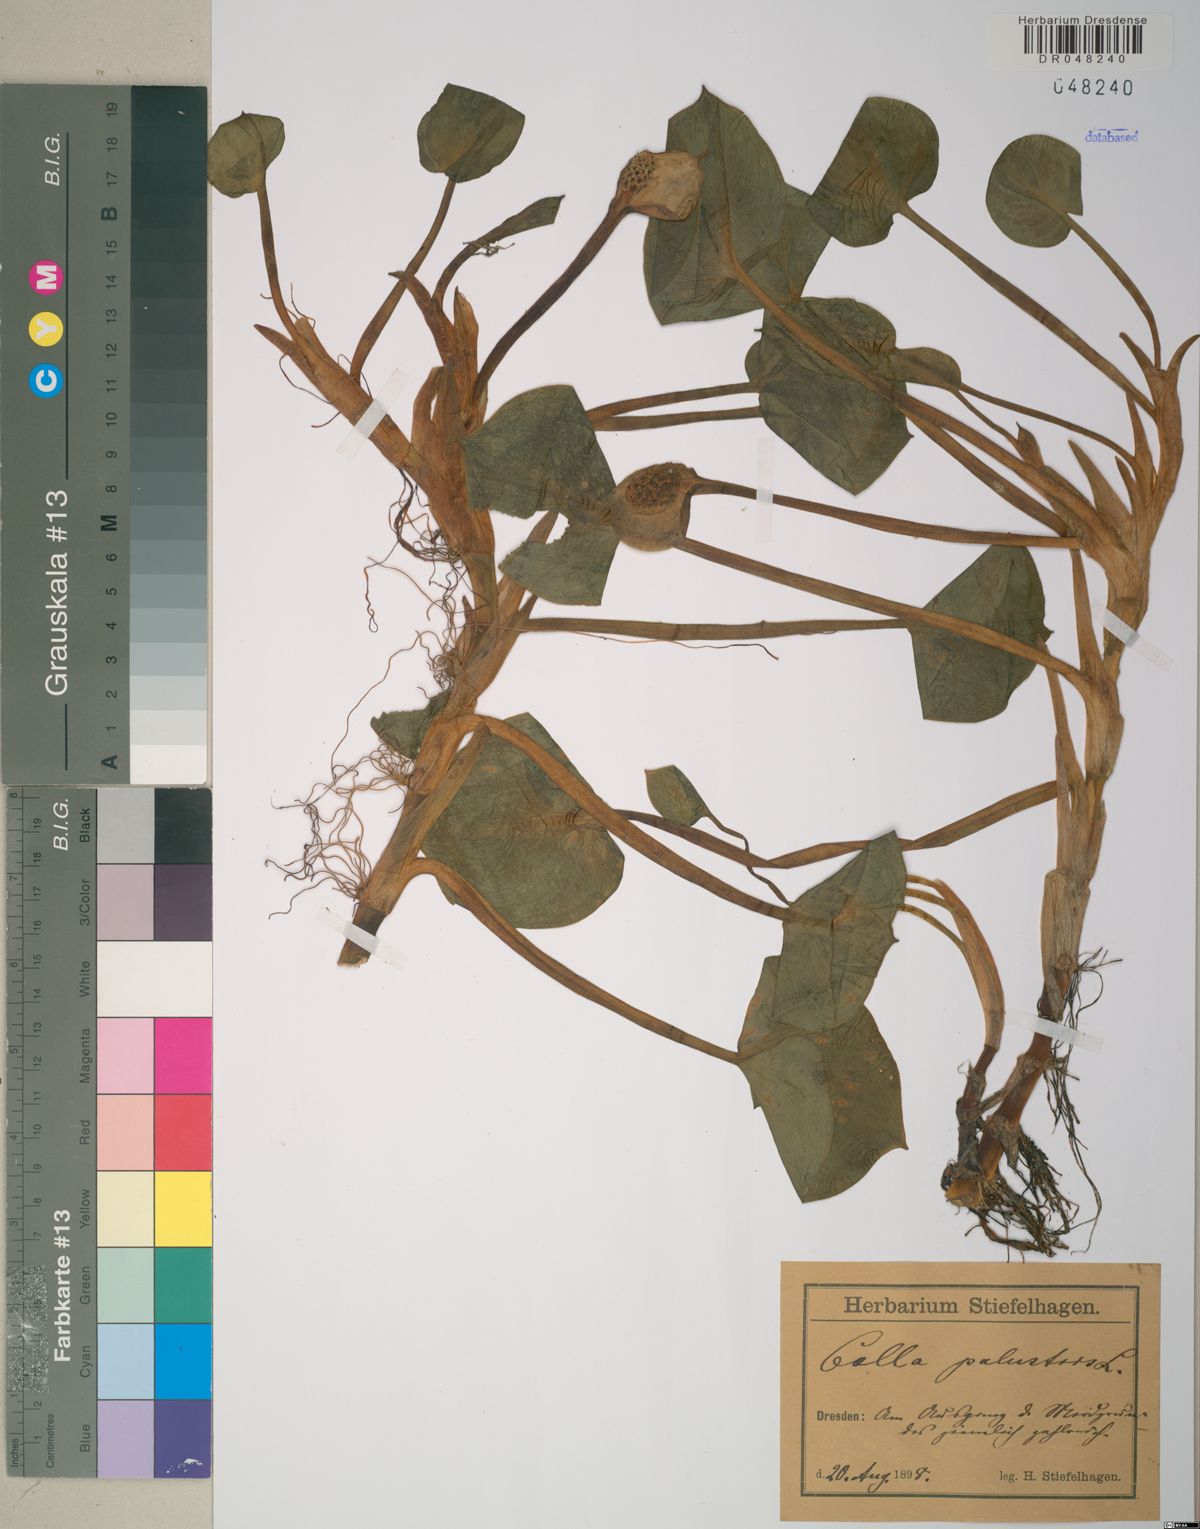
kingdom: Plantae
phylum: Tracheophyta
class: Liliopsida
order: Alismatales
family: Araceae
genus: Calla
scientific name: Calla palustris
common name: Bog arum
